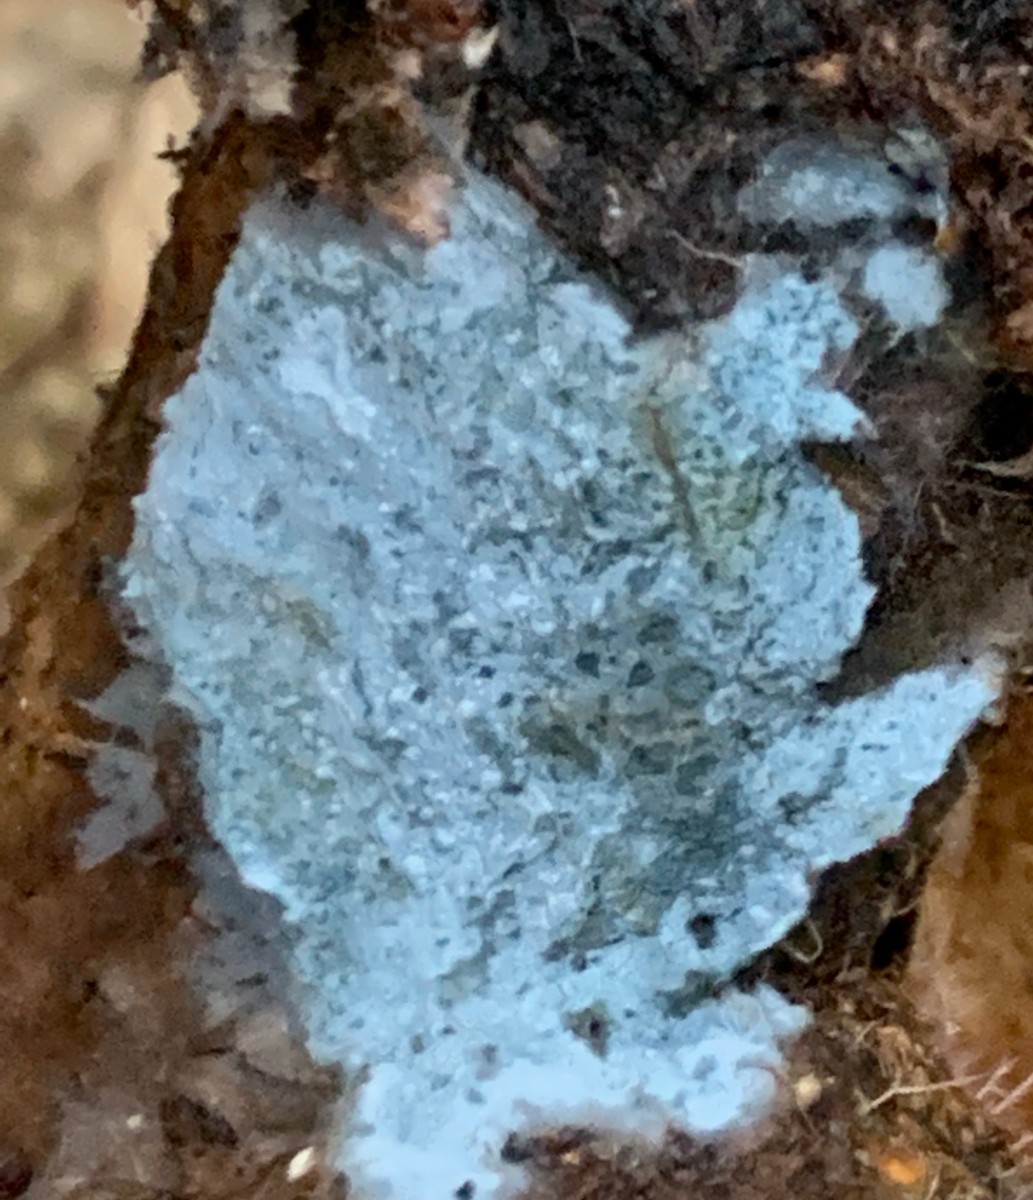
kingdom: Fungi
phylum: Basidiomycota
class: Agaricomycetes
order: Atheliales
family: Atheliaceae
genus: Byssocorticium
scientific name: Byssocorticium atrovirens
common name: blå førnehinde
